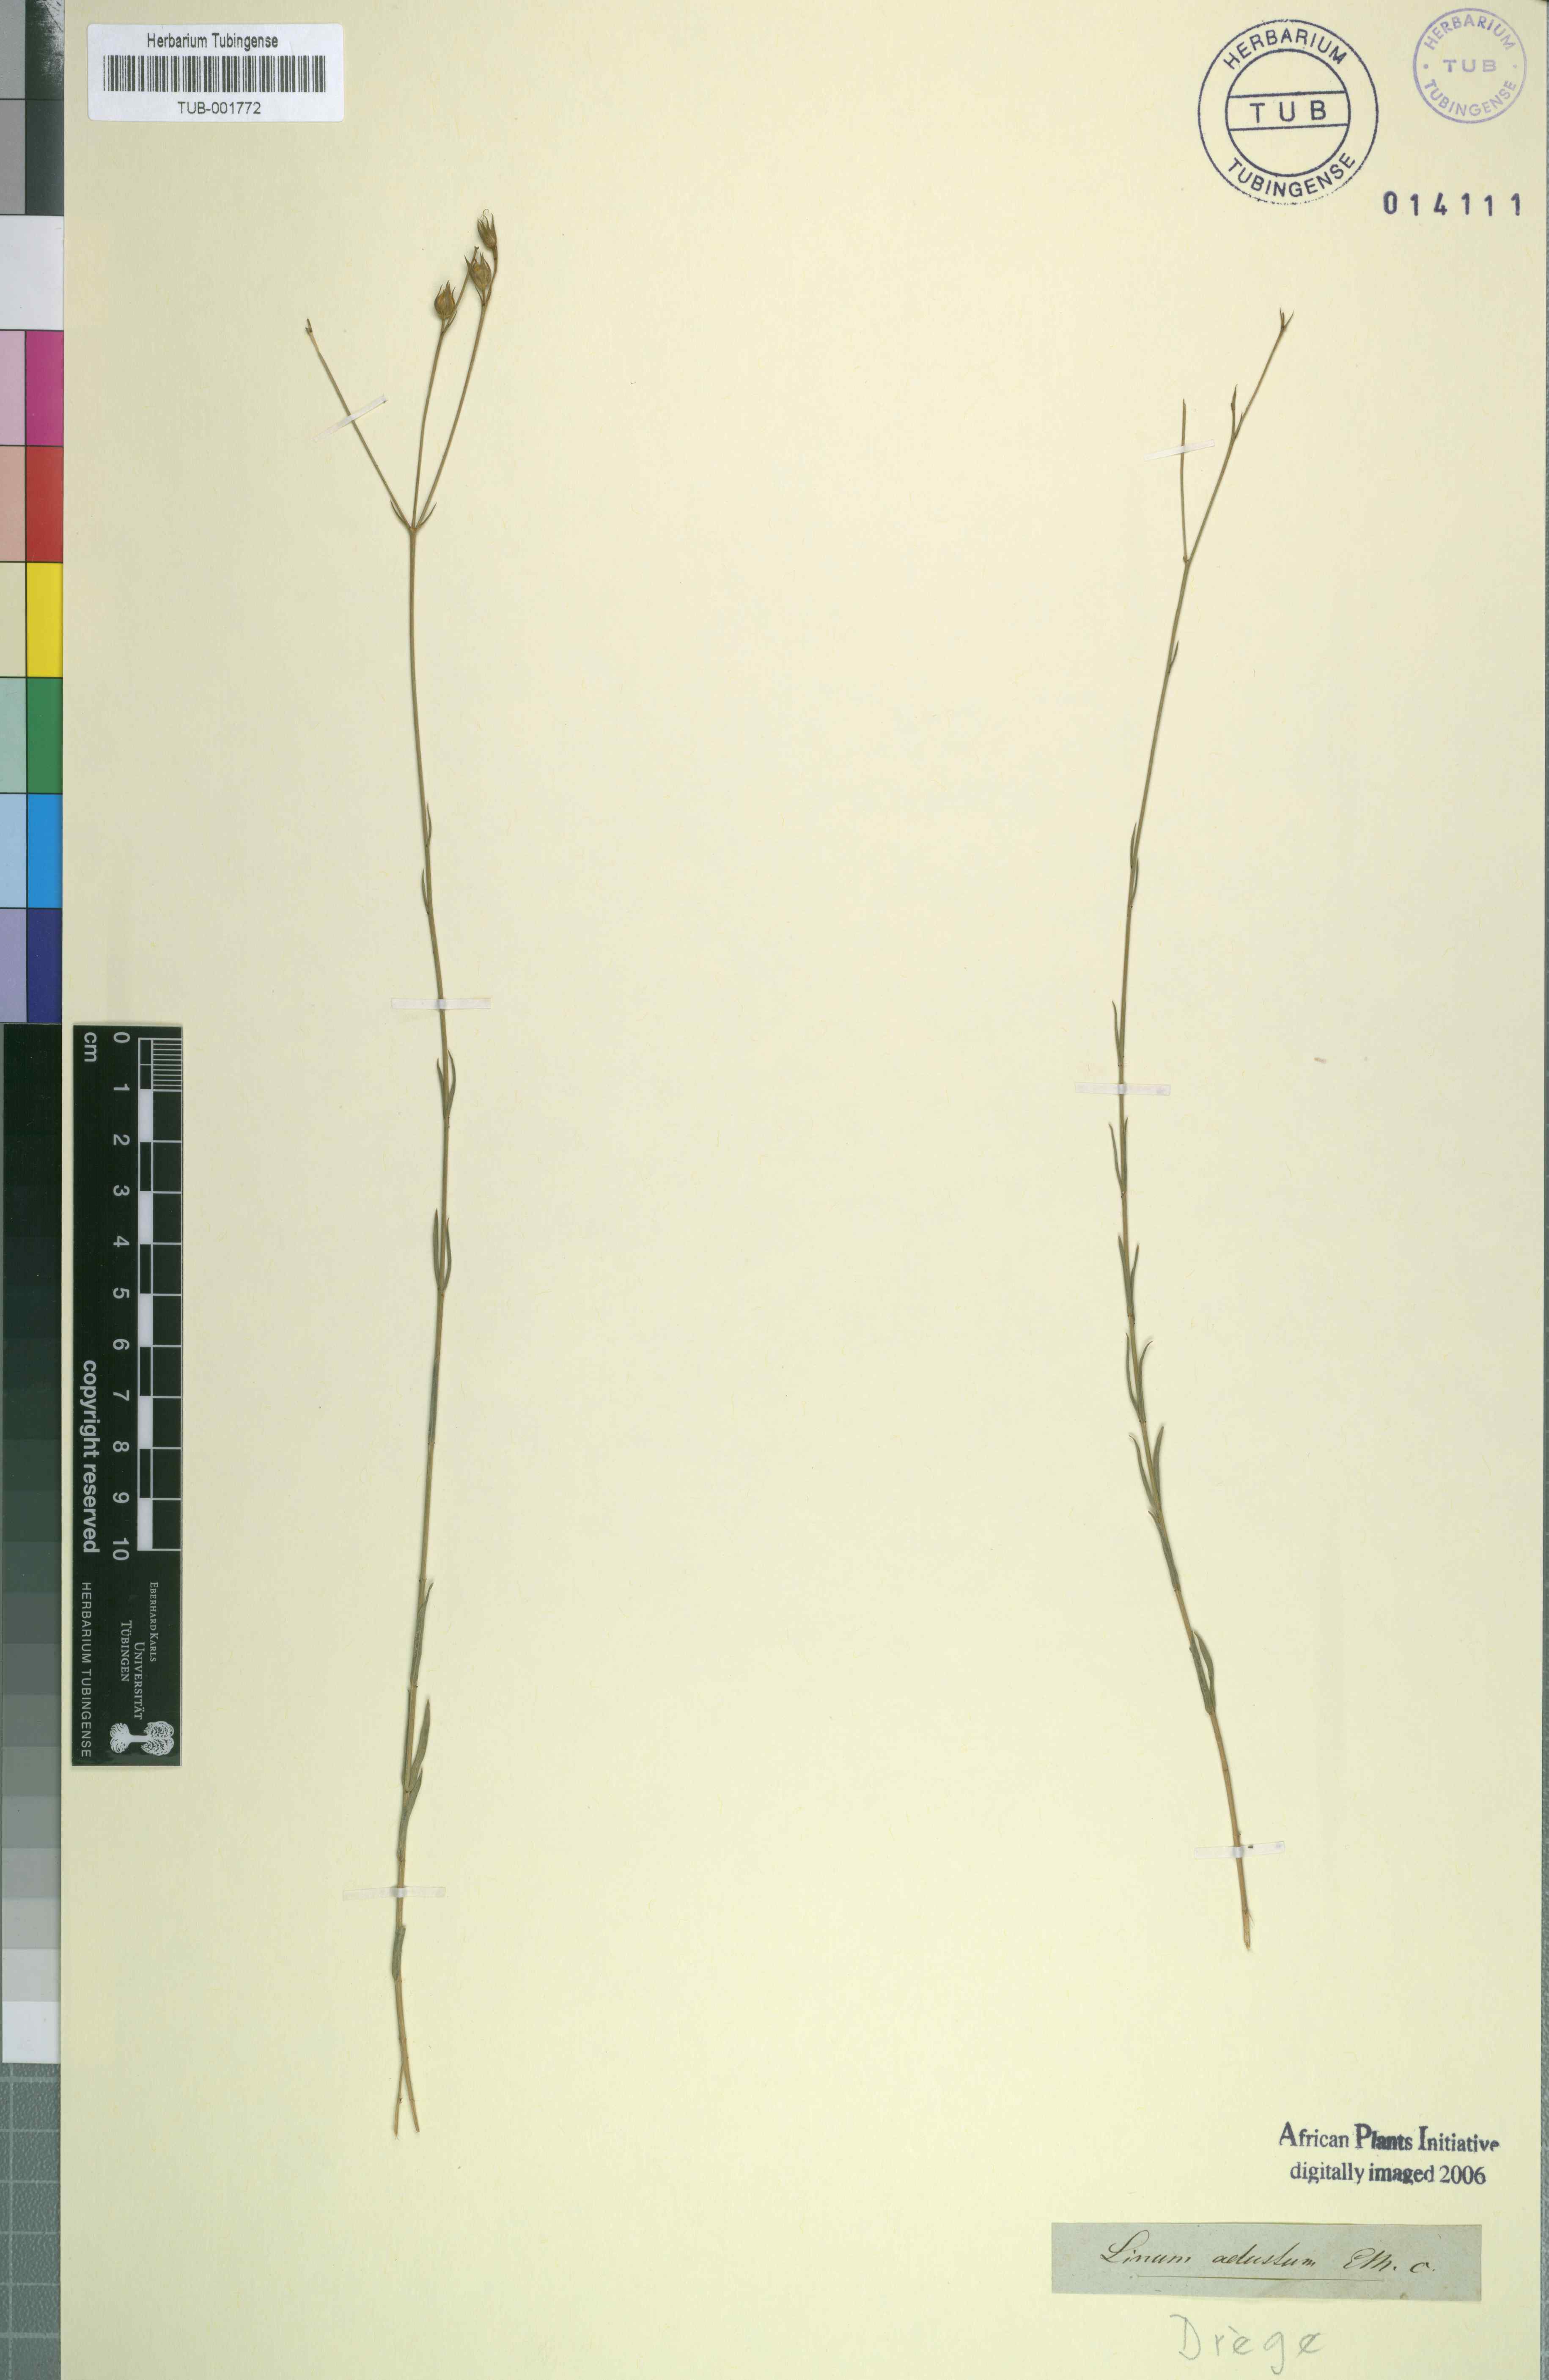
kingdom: Plantae
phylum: Tracheophyta
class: Magnoliopsida
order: Malpighiales
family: Linaceae
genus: Linum
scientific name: Linum adustum
